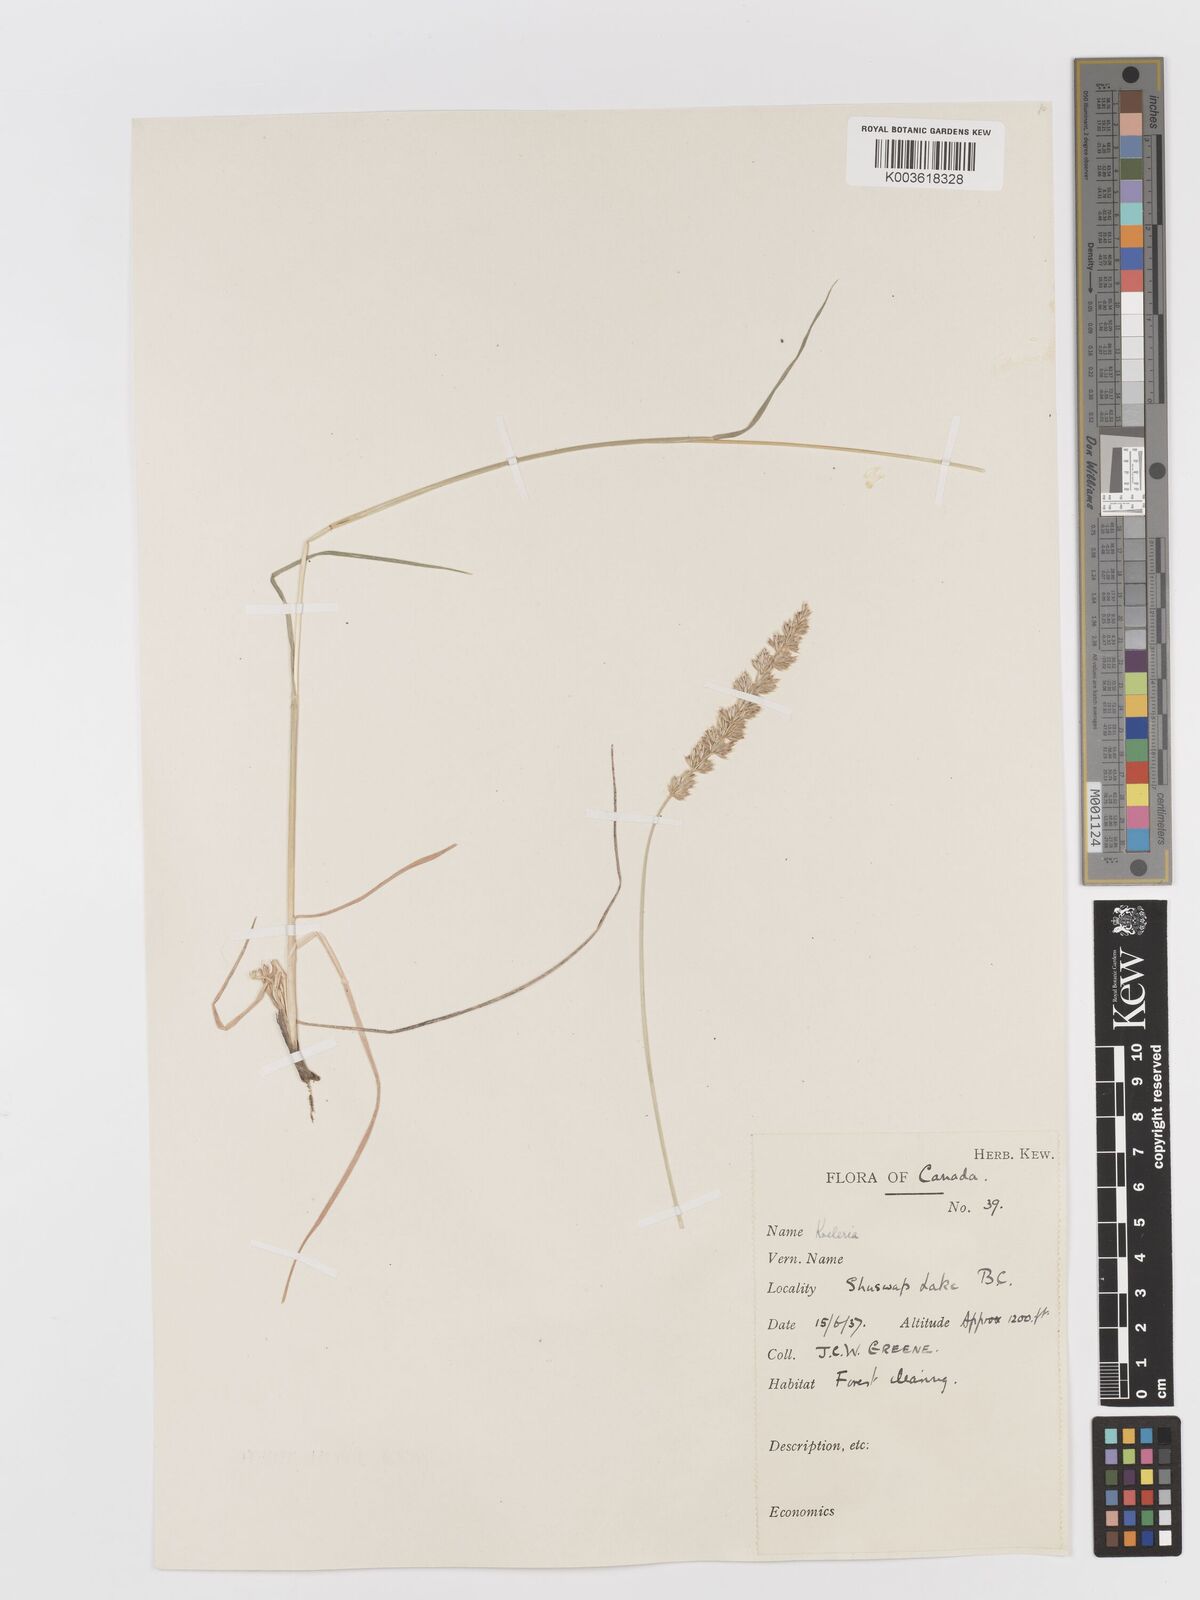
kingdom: Plantae
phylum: Tracheophyta
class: Liliopsida
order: Poales
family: Poaceae
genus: Koeleria
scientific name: Koeleria
